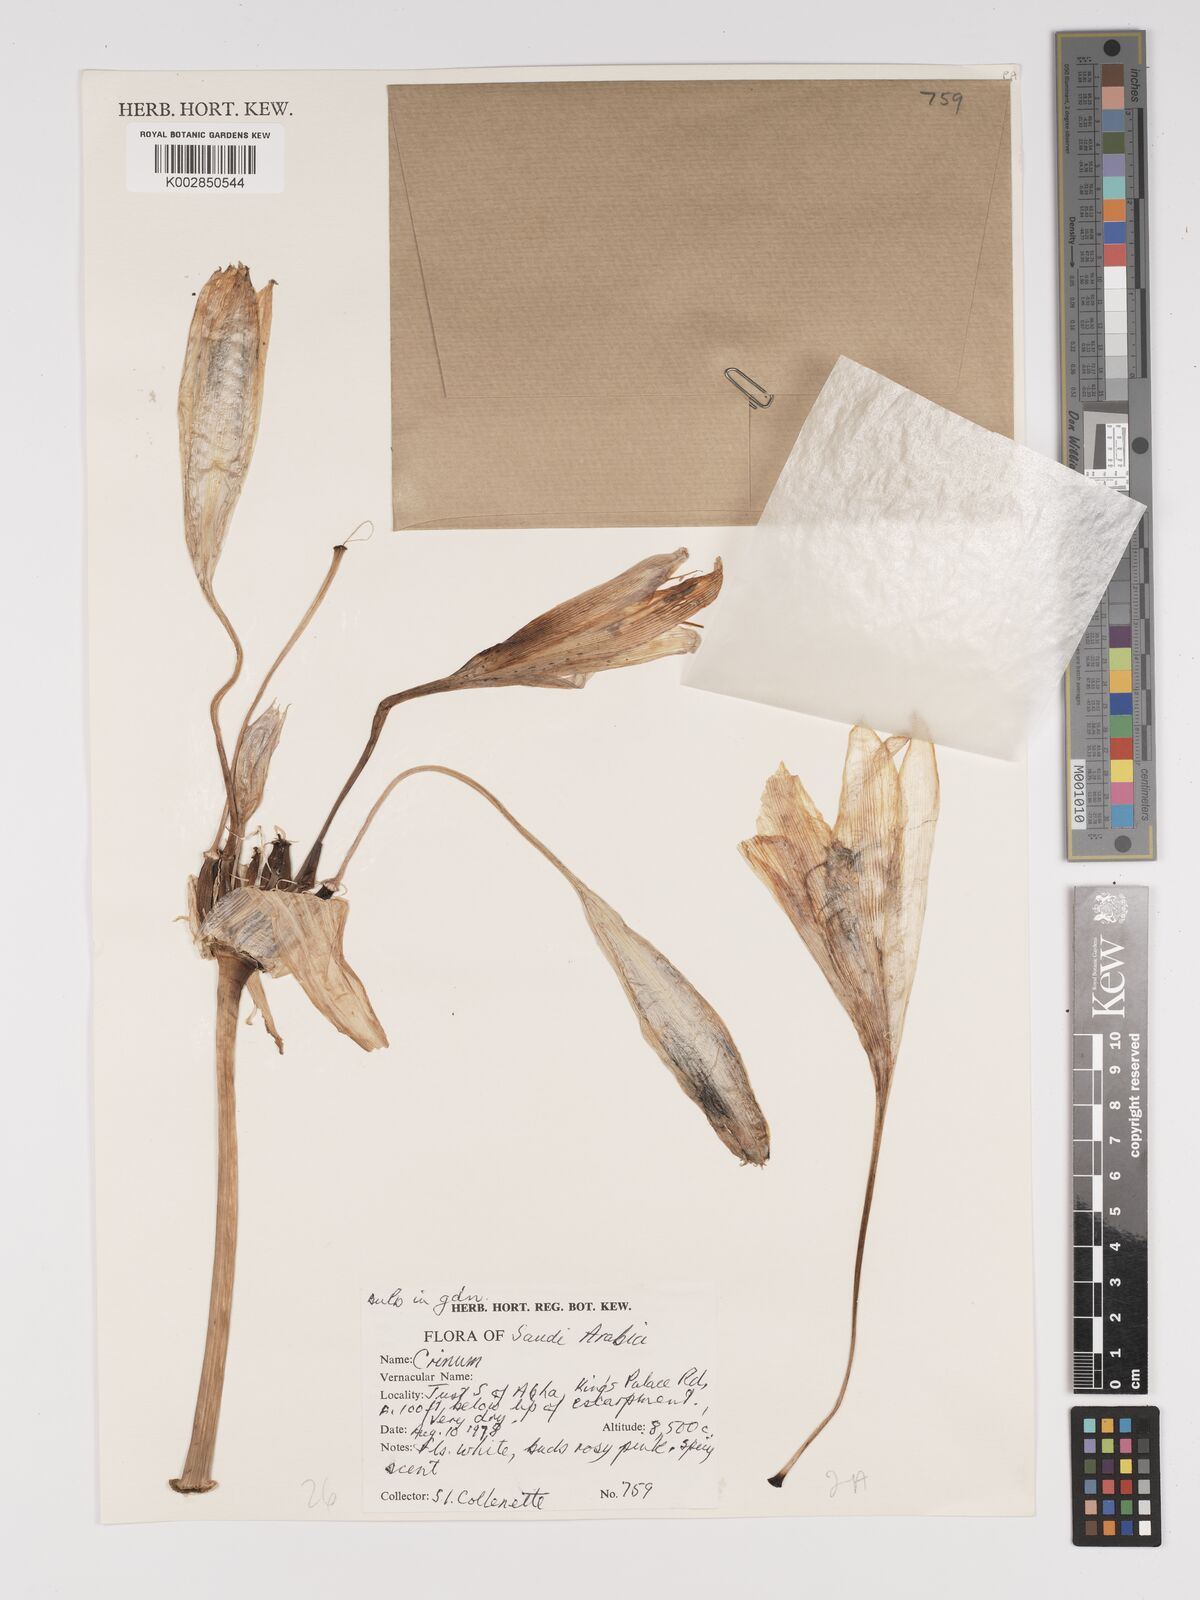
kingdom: Plantae
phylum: Tracheophyta
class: Liliopsida
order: Asparagales
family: Amaryllidaceae
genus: Crinum
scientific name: Crinum
